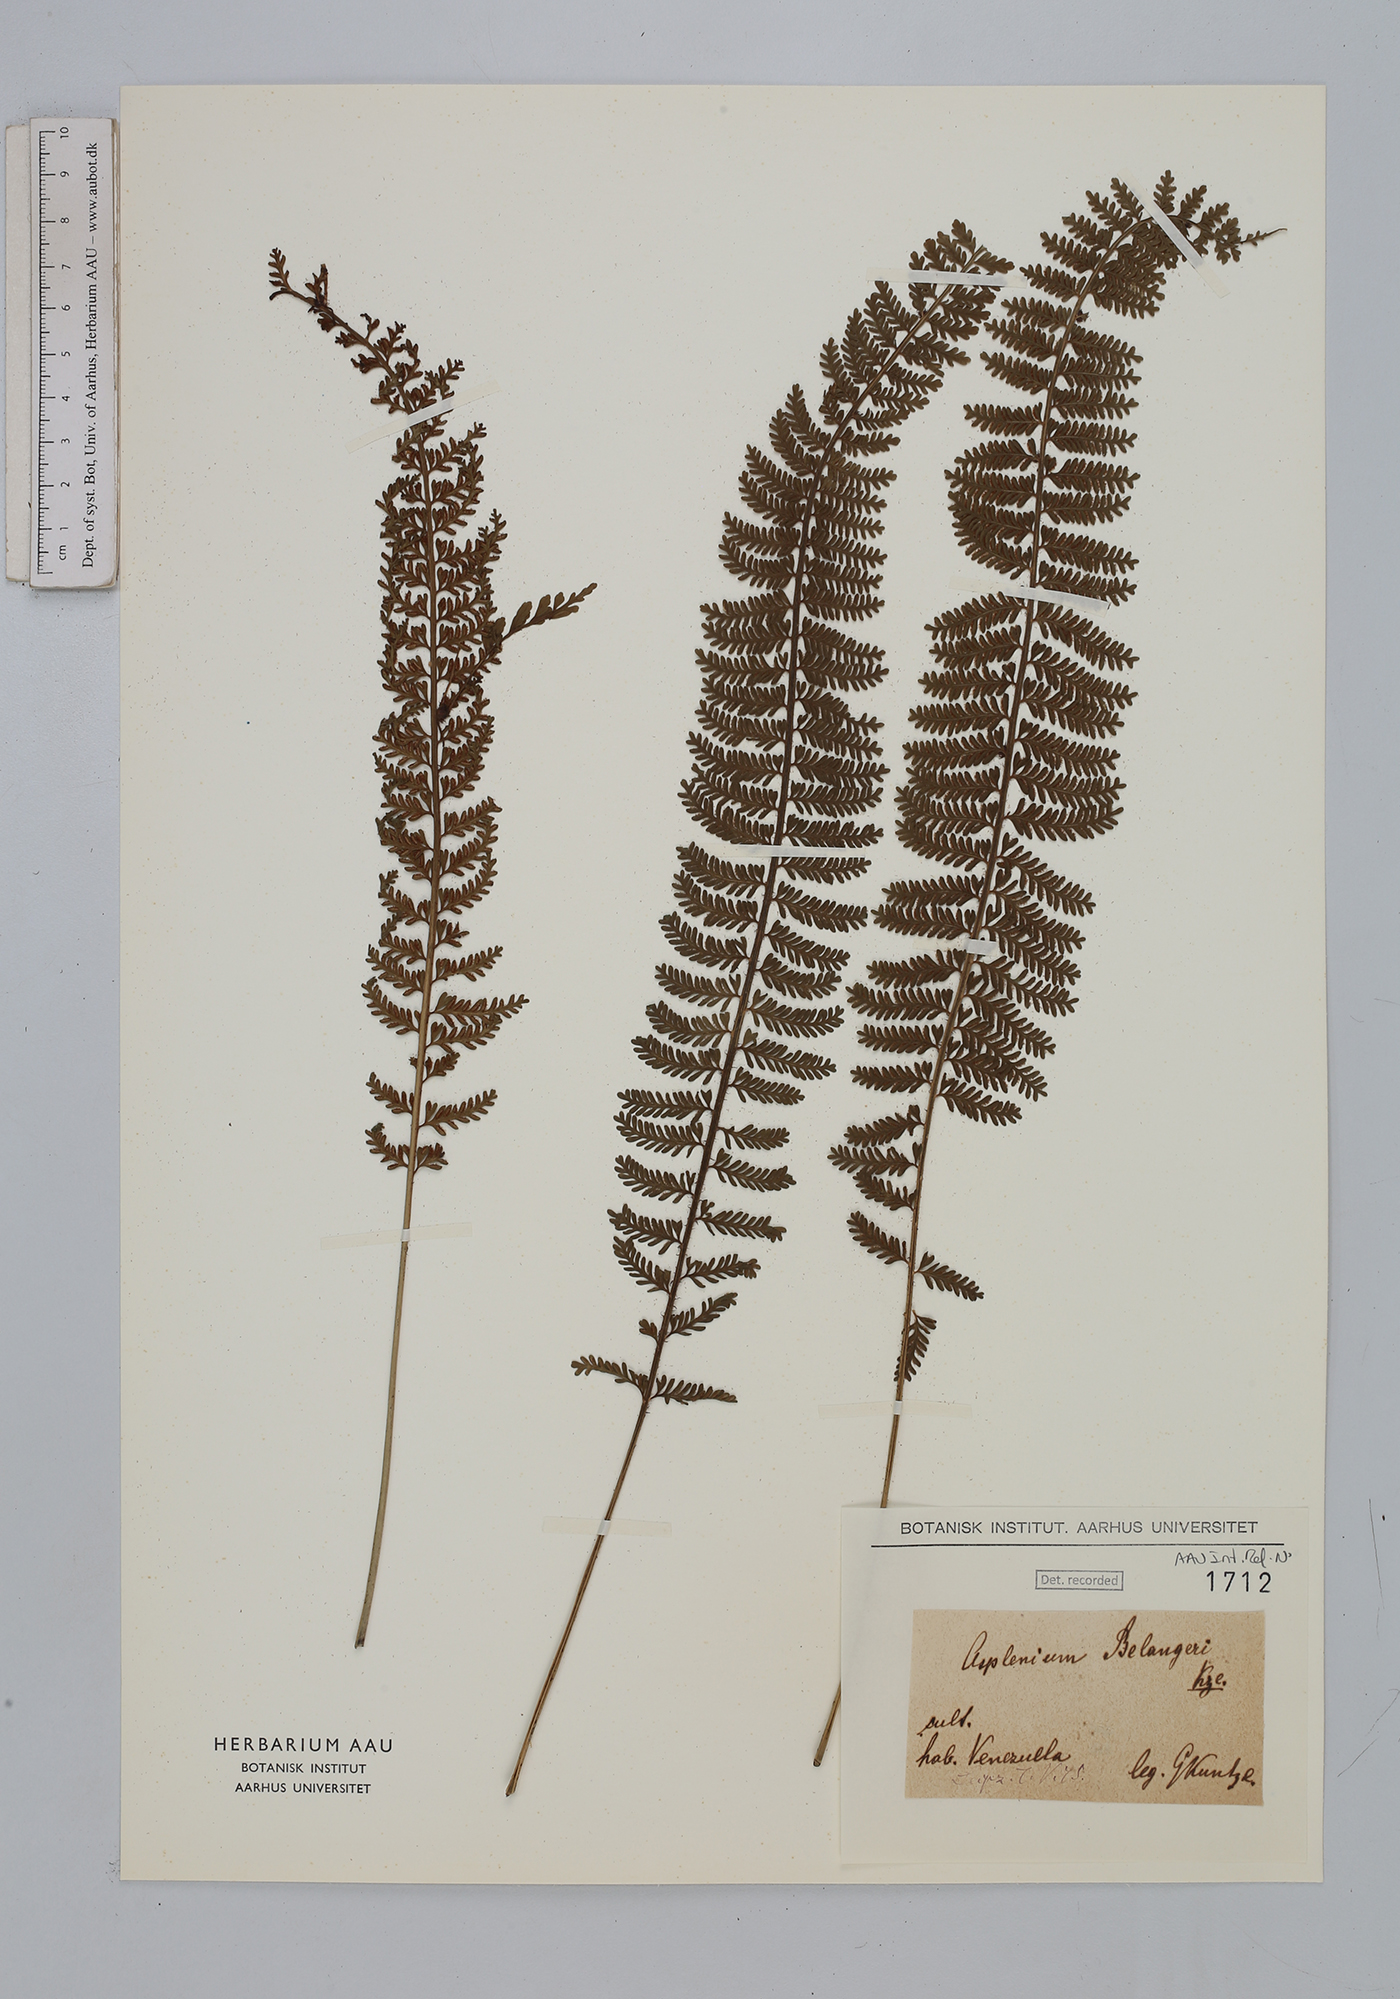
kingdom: Plantae
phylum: Tracheophyta
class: Polypodiopsida
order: Polypodiales
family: Aspleniaceae
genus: Asplenium
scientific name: Asplenium thunbergii
